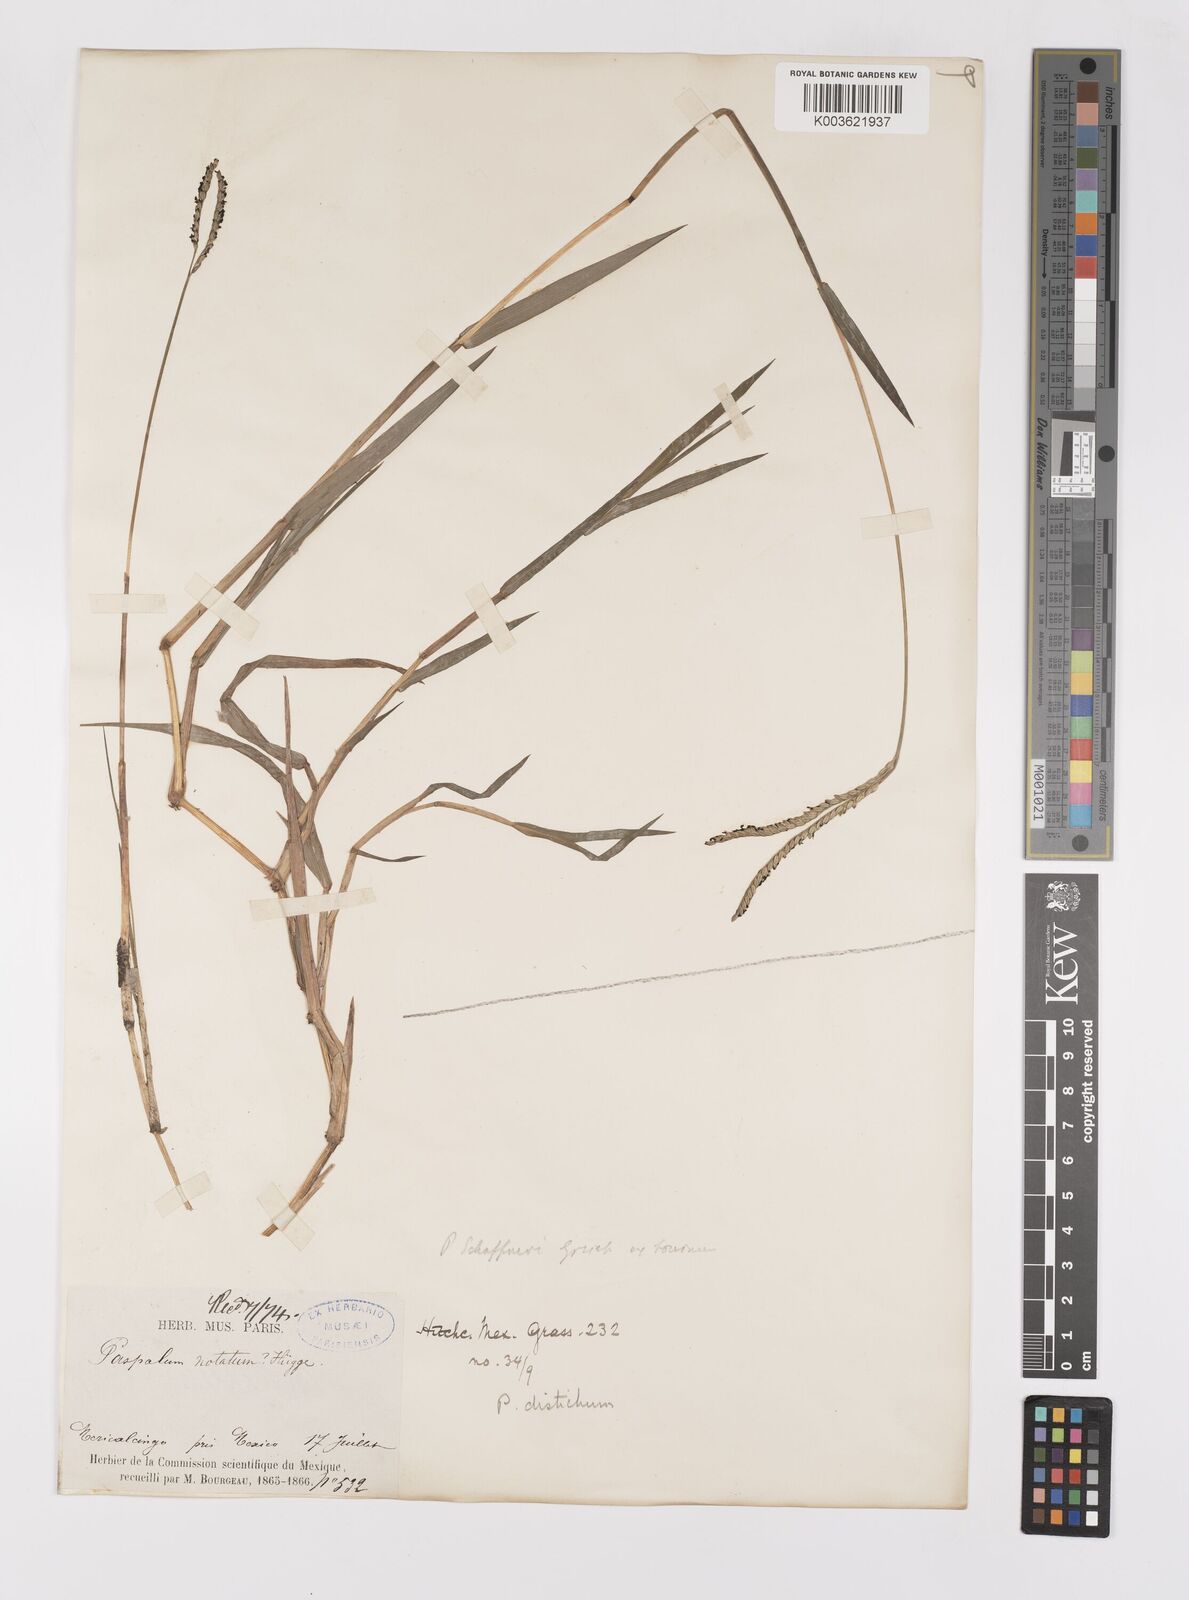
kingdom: Plantae
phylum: Tracheophyta
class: Liliopsida
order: Poales
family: Poaceae
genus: Paspalum
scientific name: Paspalum distichum
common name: Knotgrass
